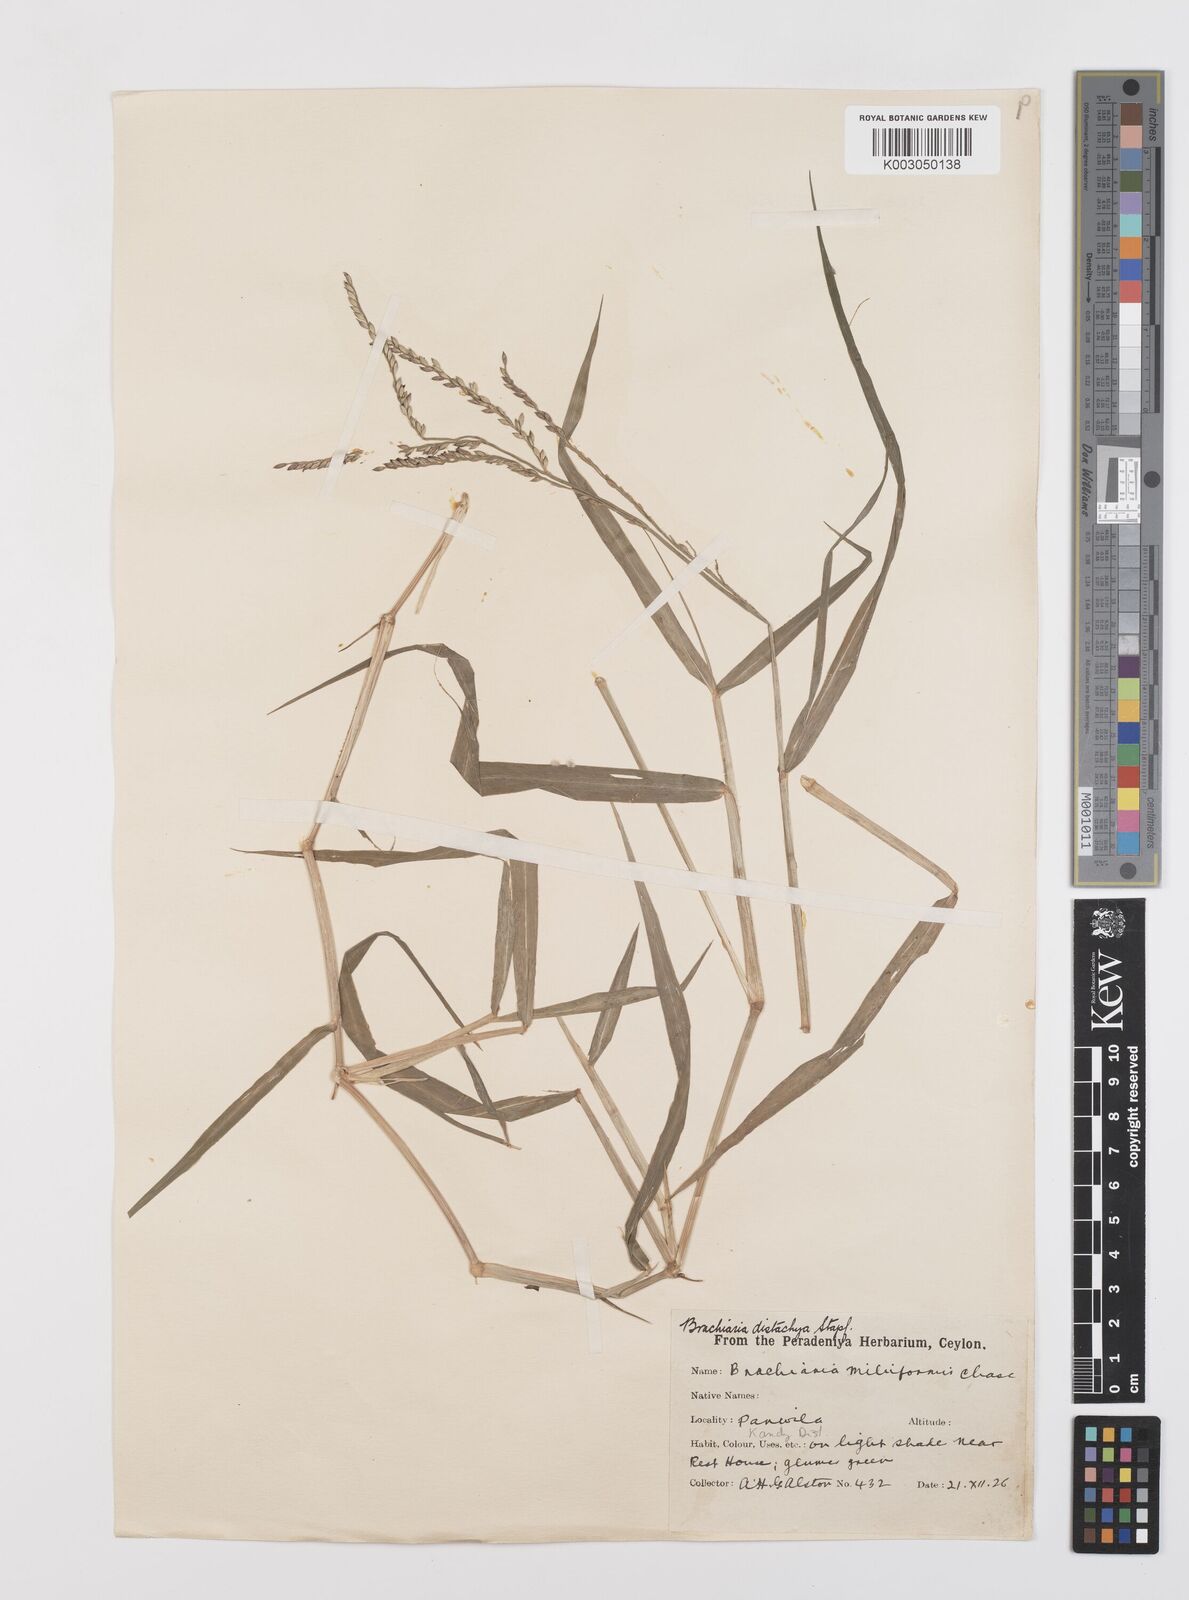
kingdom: Plantae
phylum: Tracheophyta
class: Liliopsida
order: Poales
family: Poaceae
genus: Urochloa
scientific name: Urochloa subquadripara
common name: Armgrass millet
